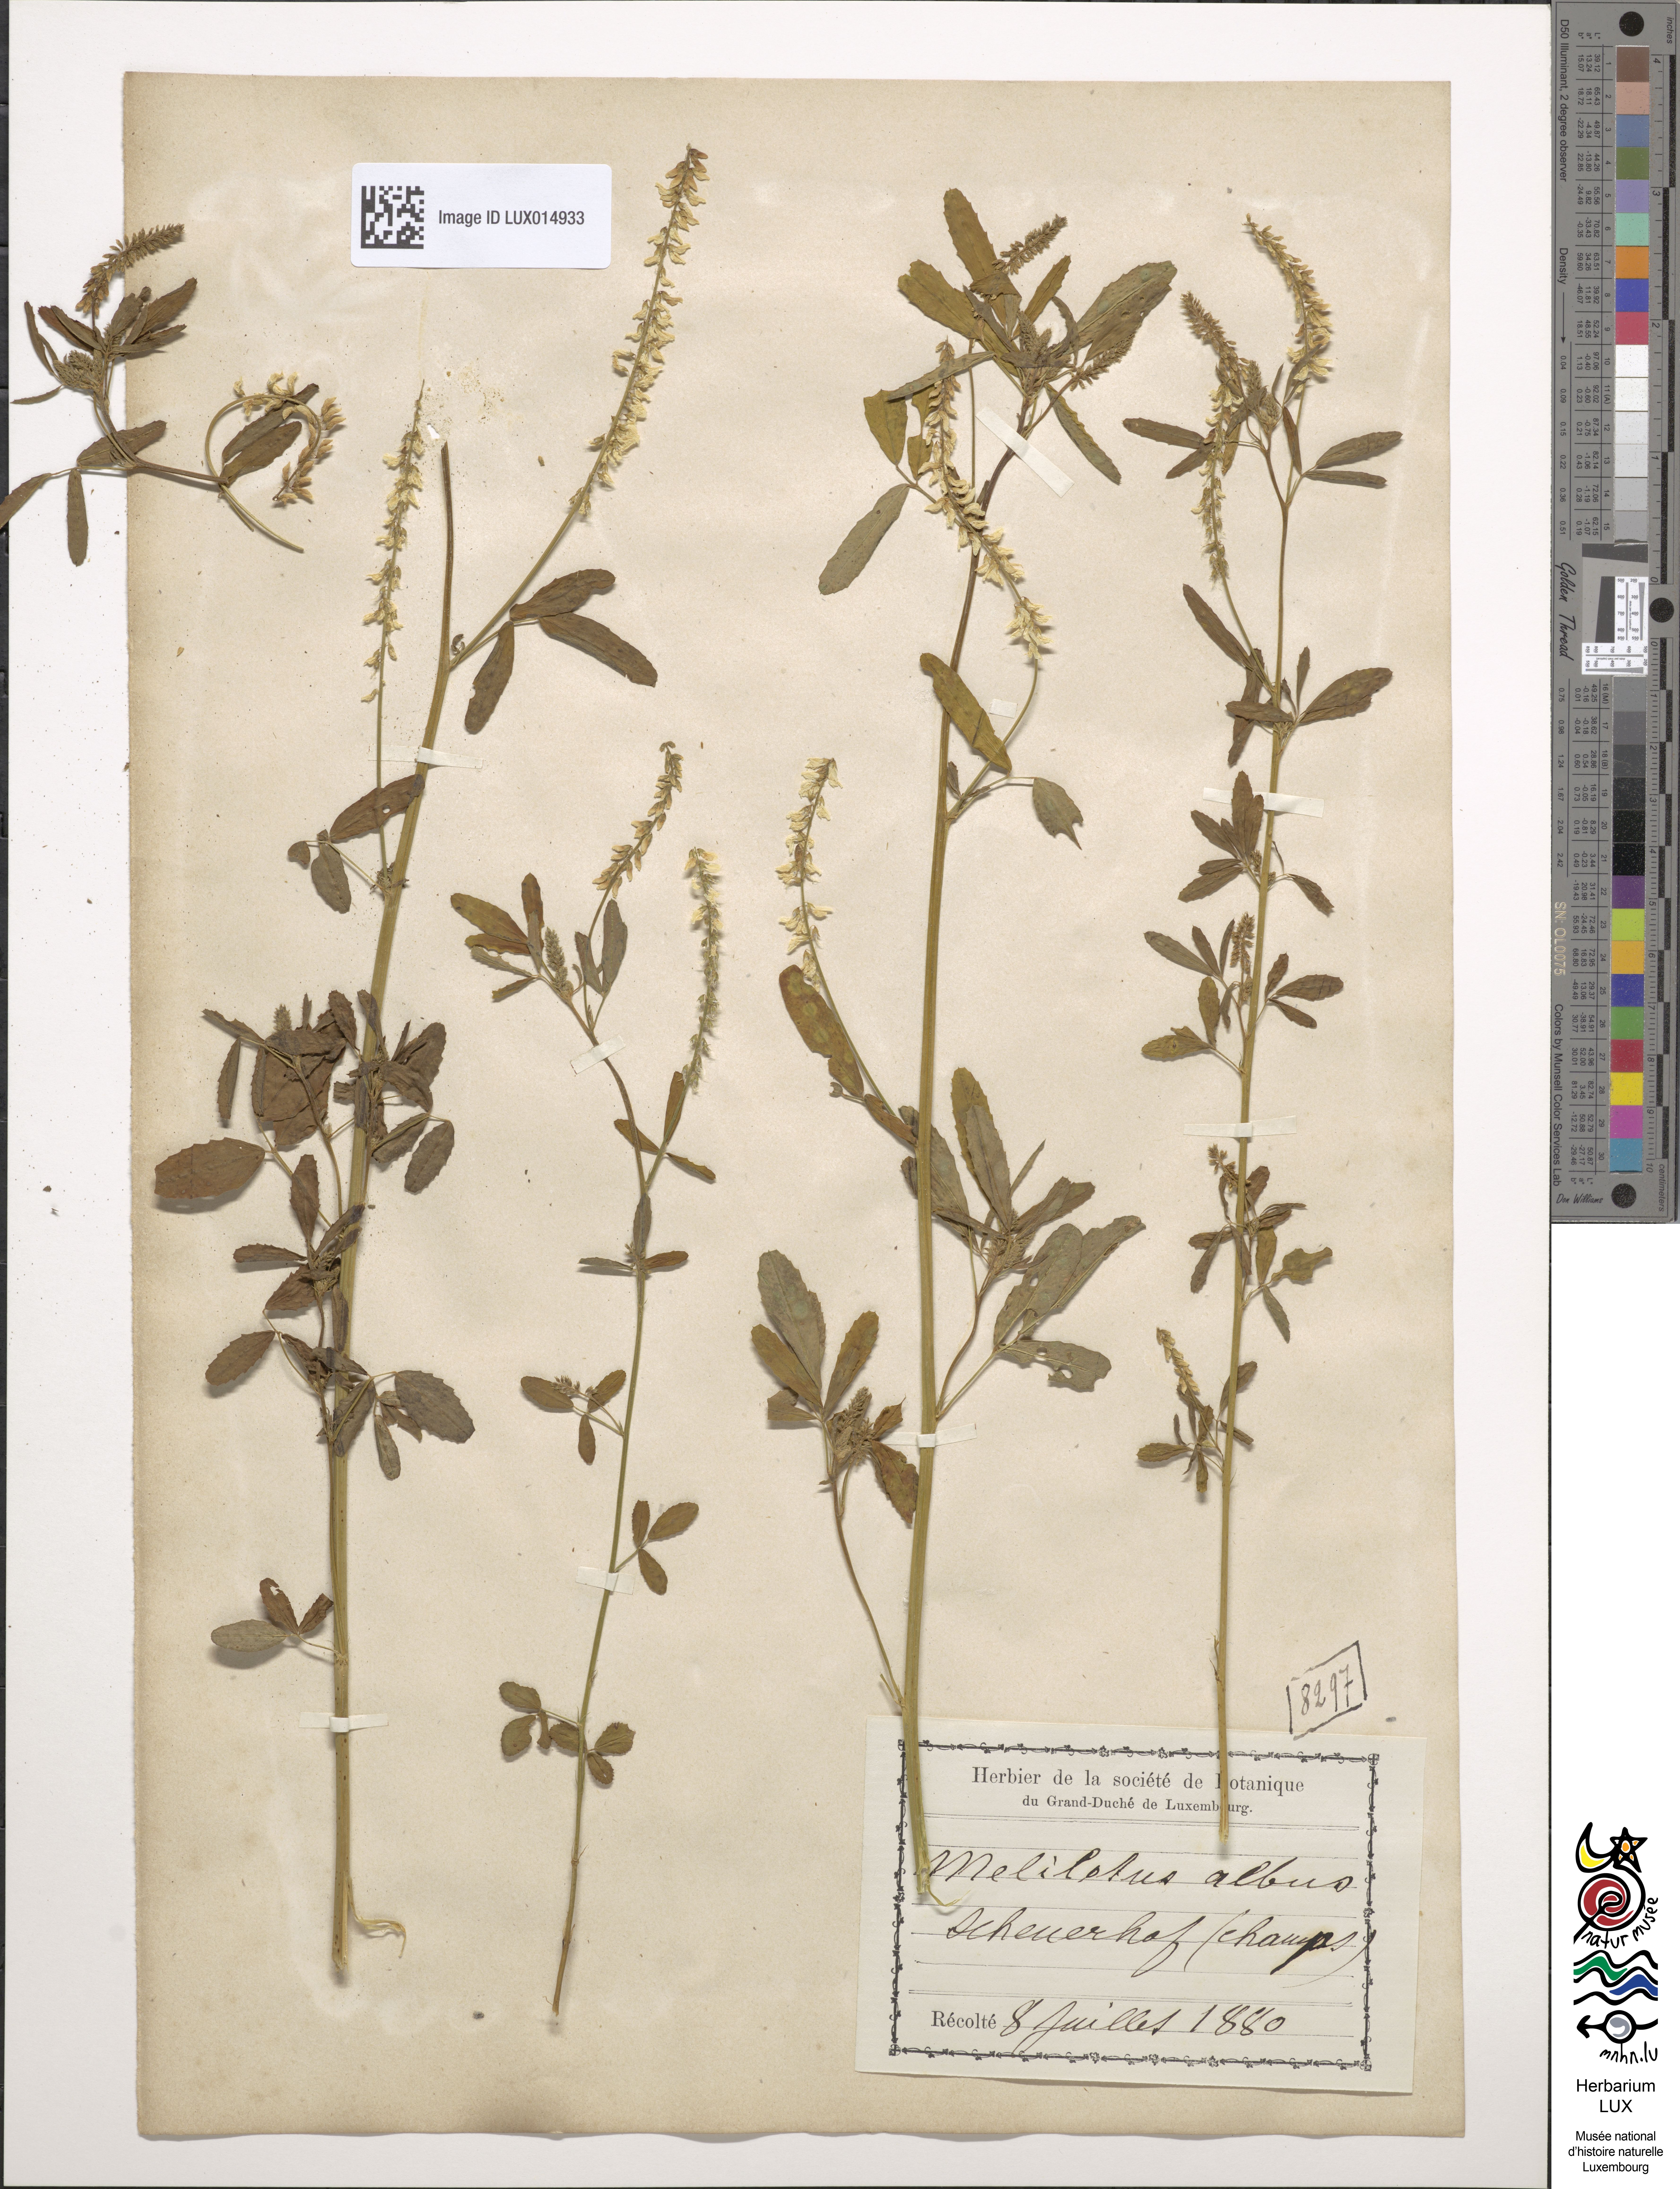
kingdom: Plantae
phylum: Tracheophyta
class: Magnoliopsida
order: Fabales
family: Fabaceae
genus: Melilotus
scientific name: Melilotus albus
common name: White melilot
